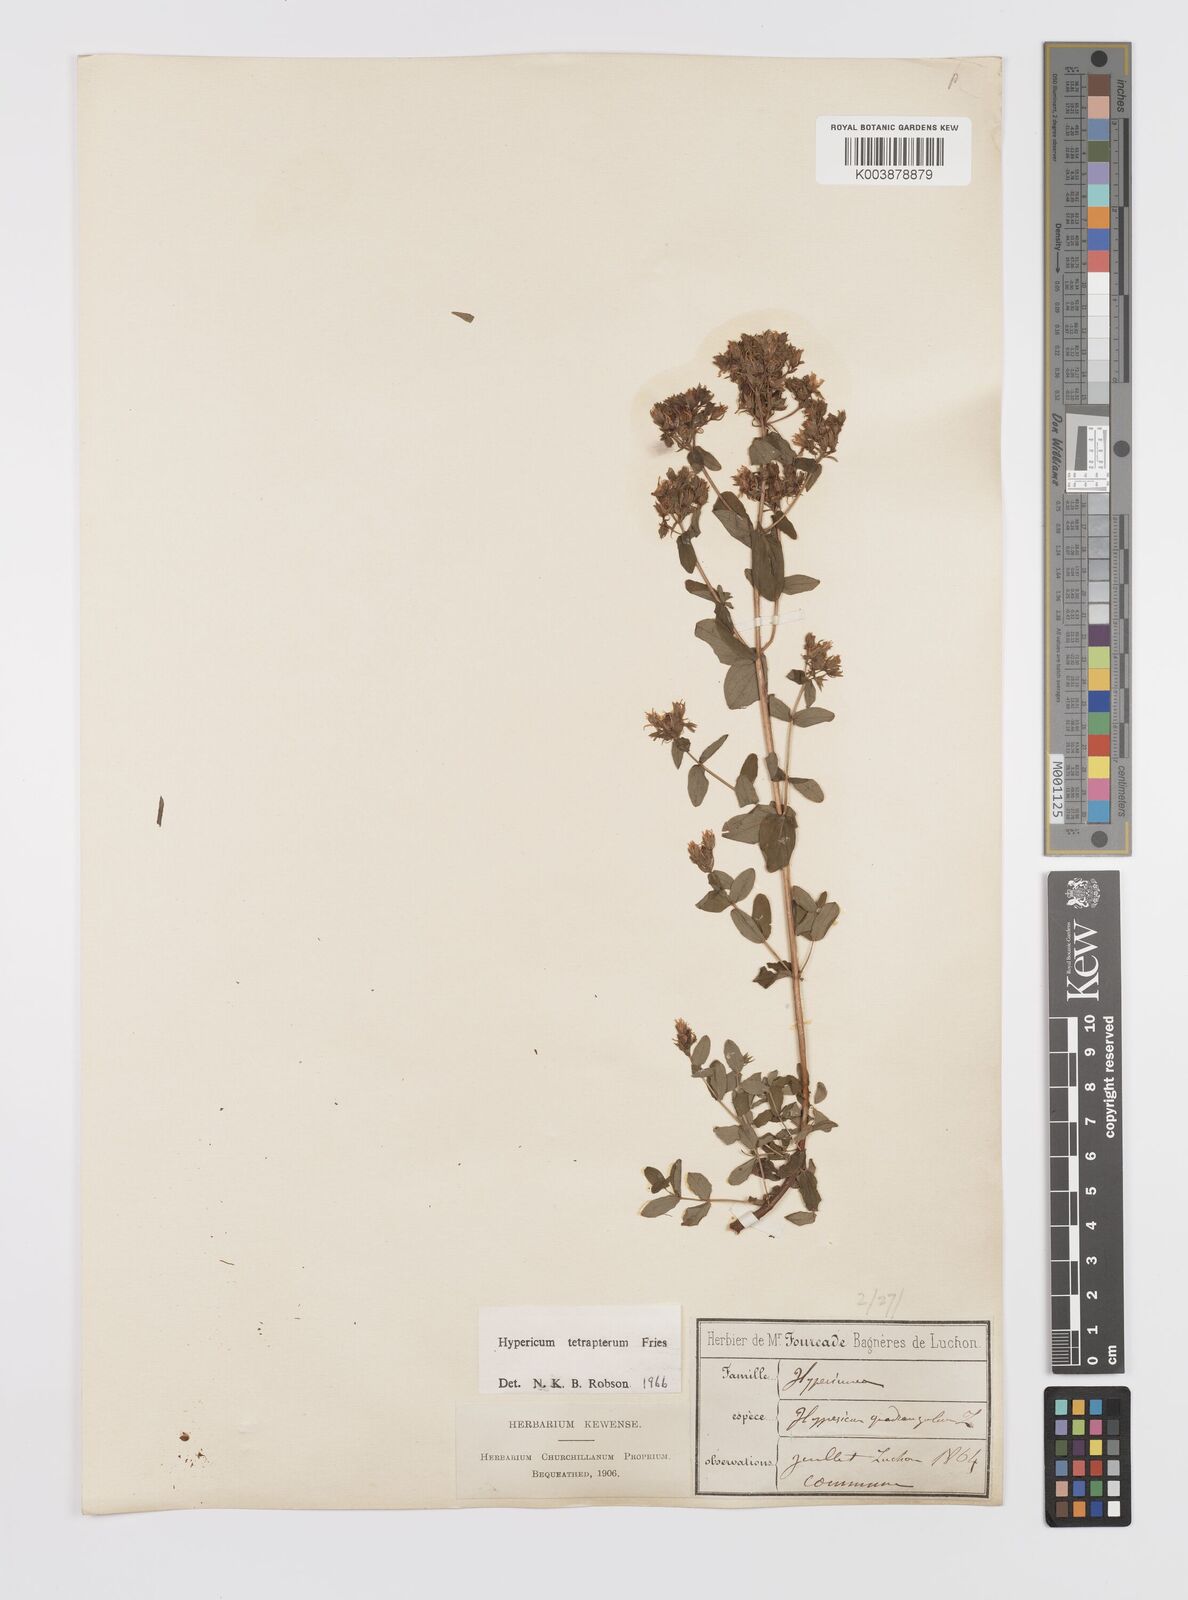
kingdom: Plantae
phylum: Tracheophyta
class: Magnoliopsida
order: Malpighiales
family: Hypericaceae
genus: Hypericum
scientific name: Hypericum tetrapterum
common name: Square-stalked st. john's-wort
